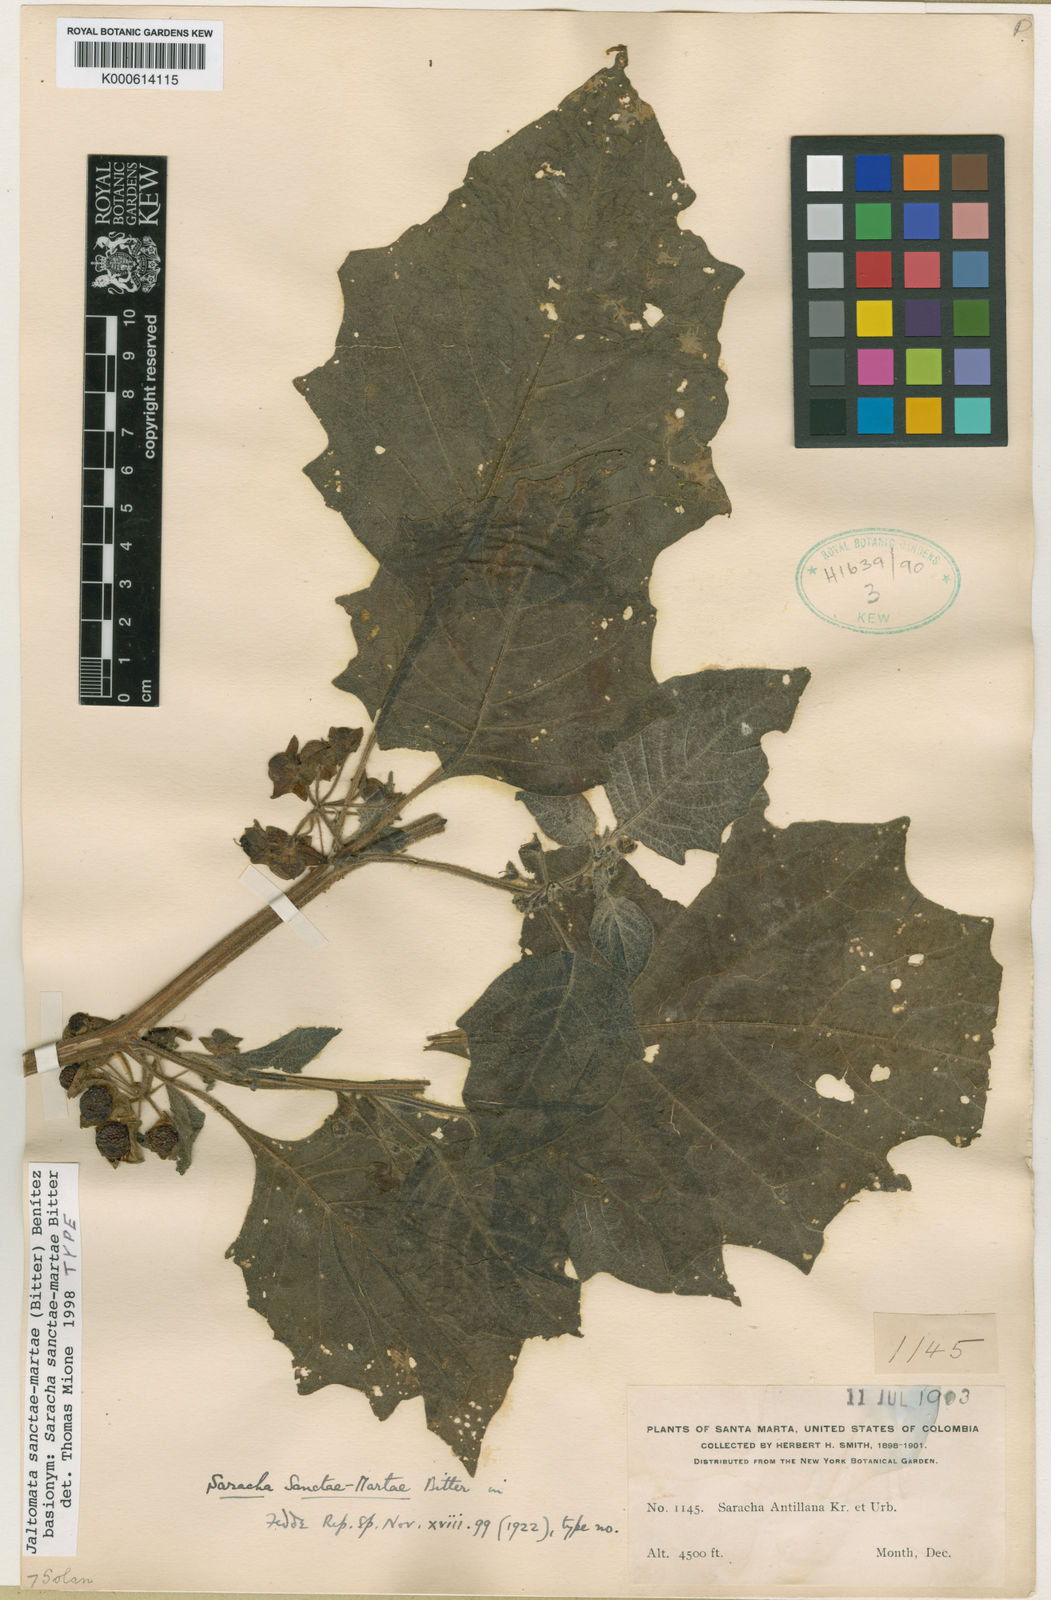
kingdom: Plantae
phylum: Tracheophyta
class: Magnoliopsida
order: Solanales
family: Solanaceae
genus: Jaltomata
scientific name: Jaltomata
